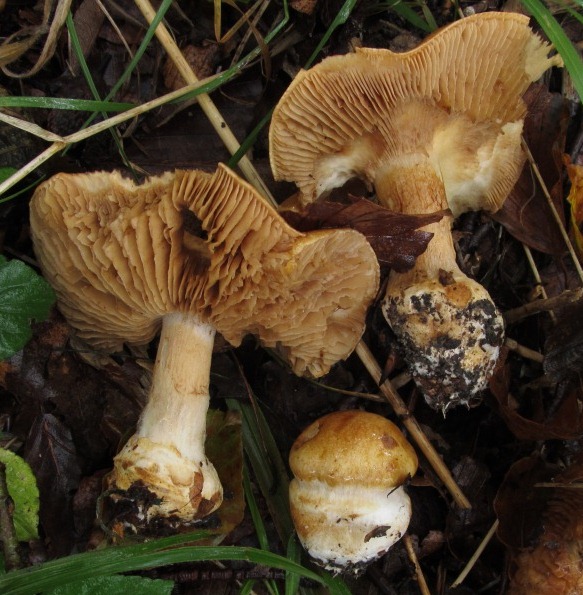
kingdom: Fungi
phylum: Basidiomycota
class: Agaricomycetes
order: Agaricales
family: Cortinariaceae
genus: Phlegmacium
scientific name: Phlegmacium subdecolorans
